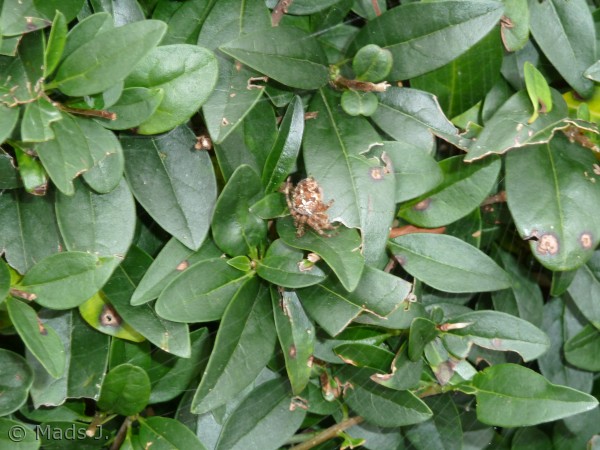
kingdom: Animalia
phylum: Arthropoda
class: Arachnida
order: Araneae
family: Araneidae
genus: Araneus
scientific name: Araneus diadematus
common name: Korsedderkop
